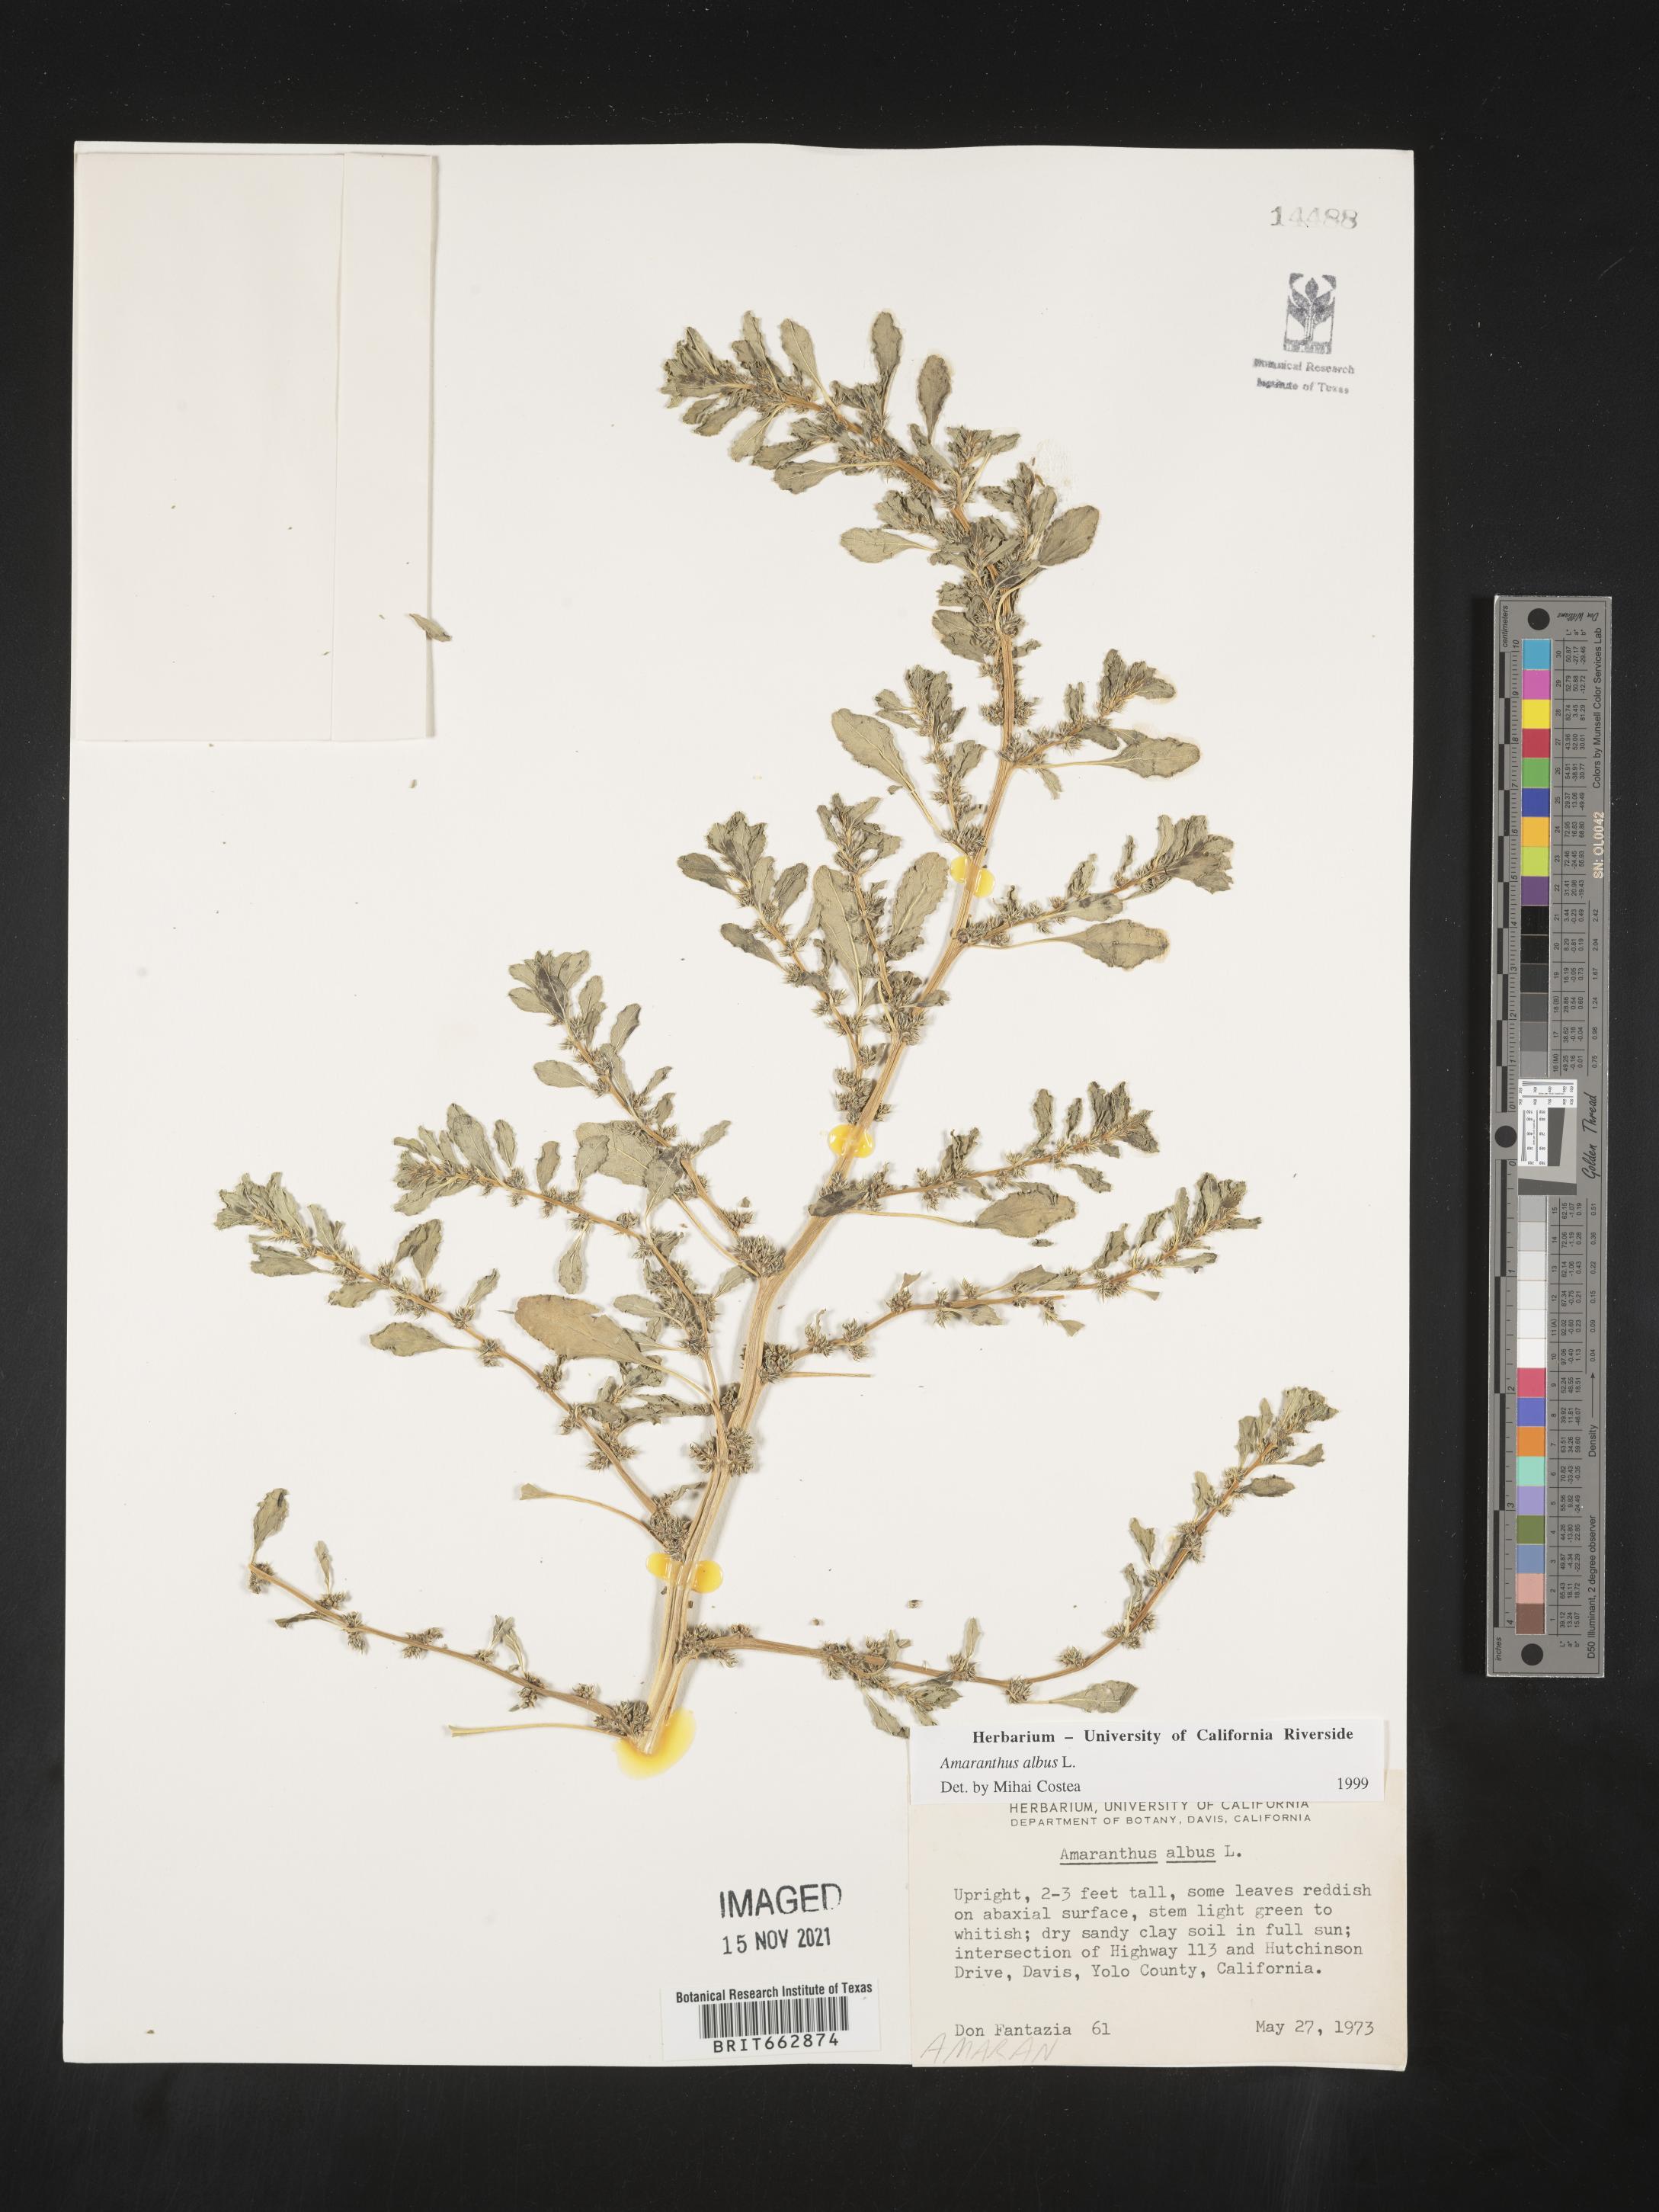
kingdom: Plantae
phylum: Tracheophyta
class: Magnoliopsida
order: Caryophyllales
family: Amaranthaceae
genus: Amaranthus
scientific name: Amaranthus albus
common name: White pigweed
